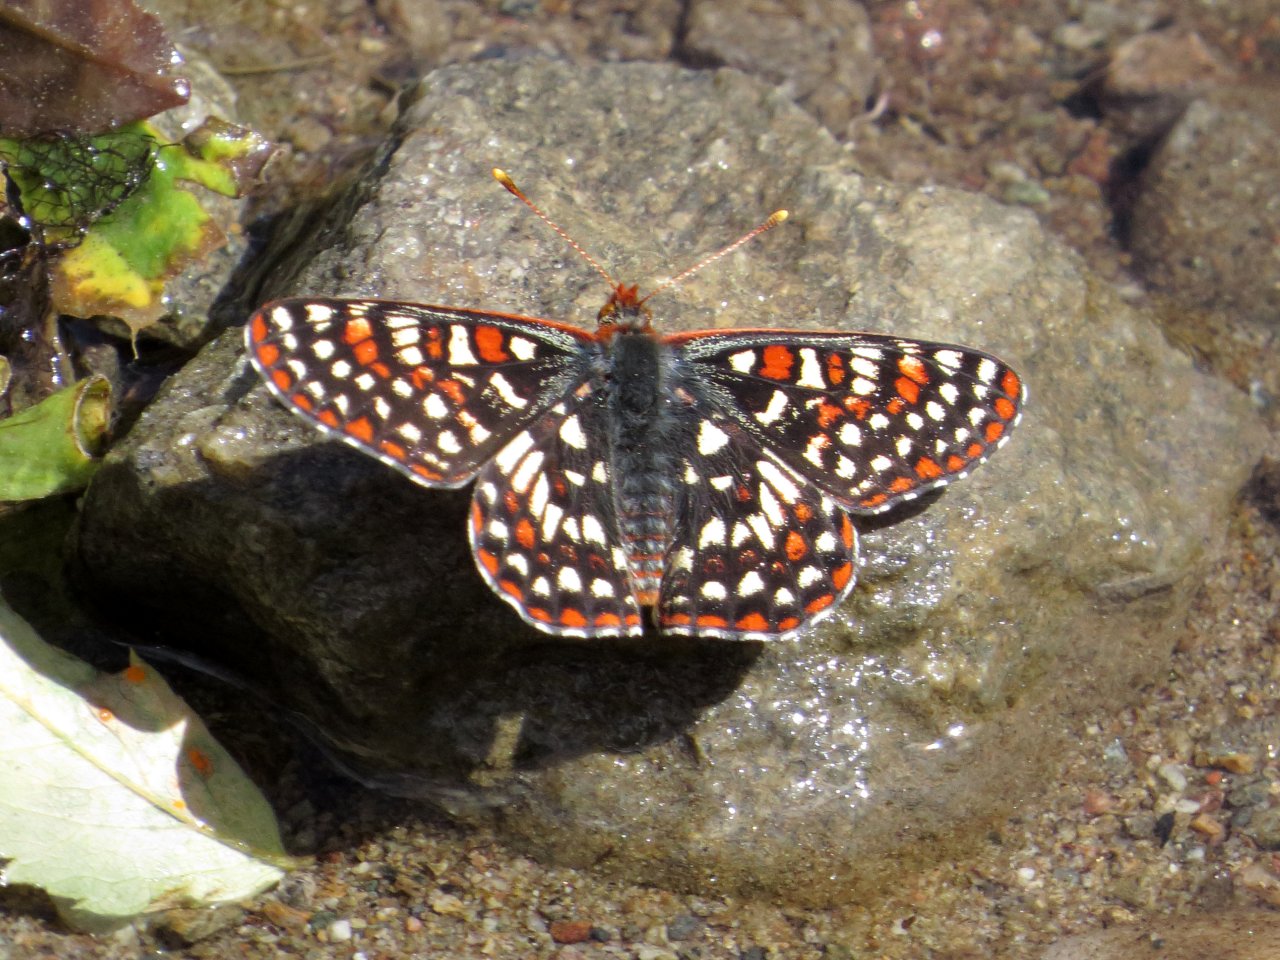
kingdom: Animalia
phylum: Arthropoda
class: Insecta
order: Lepidoptera
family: Nymphalidae
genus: Occidryas
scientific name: Occidryas anicia
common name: Anicia Checkerspot
